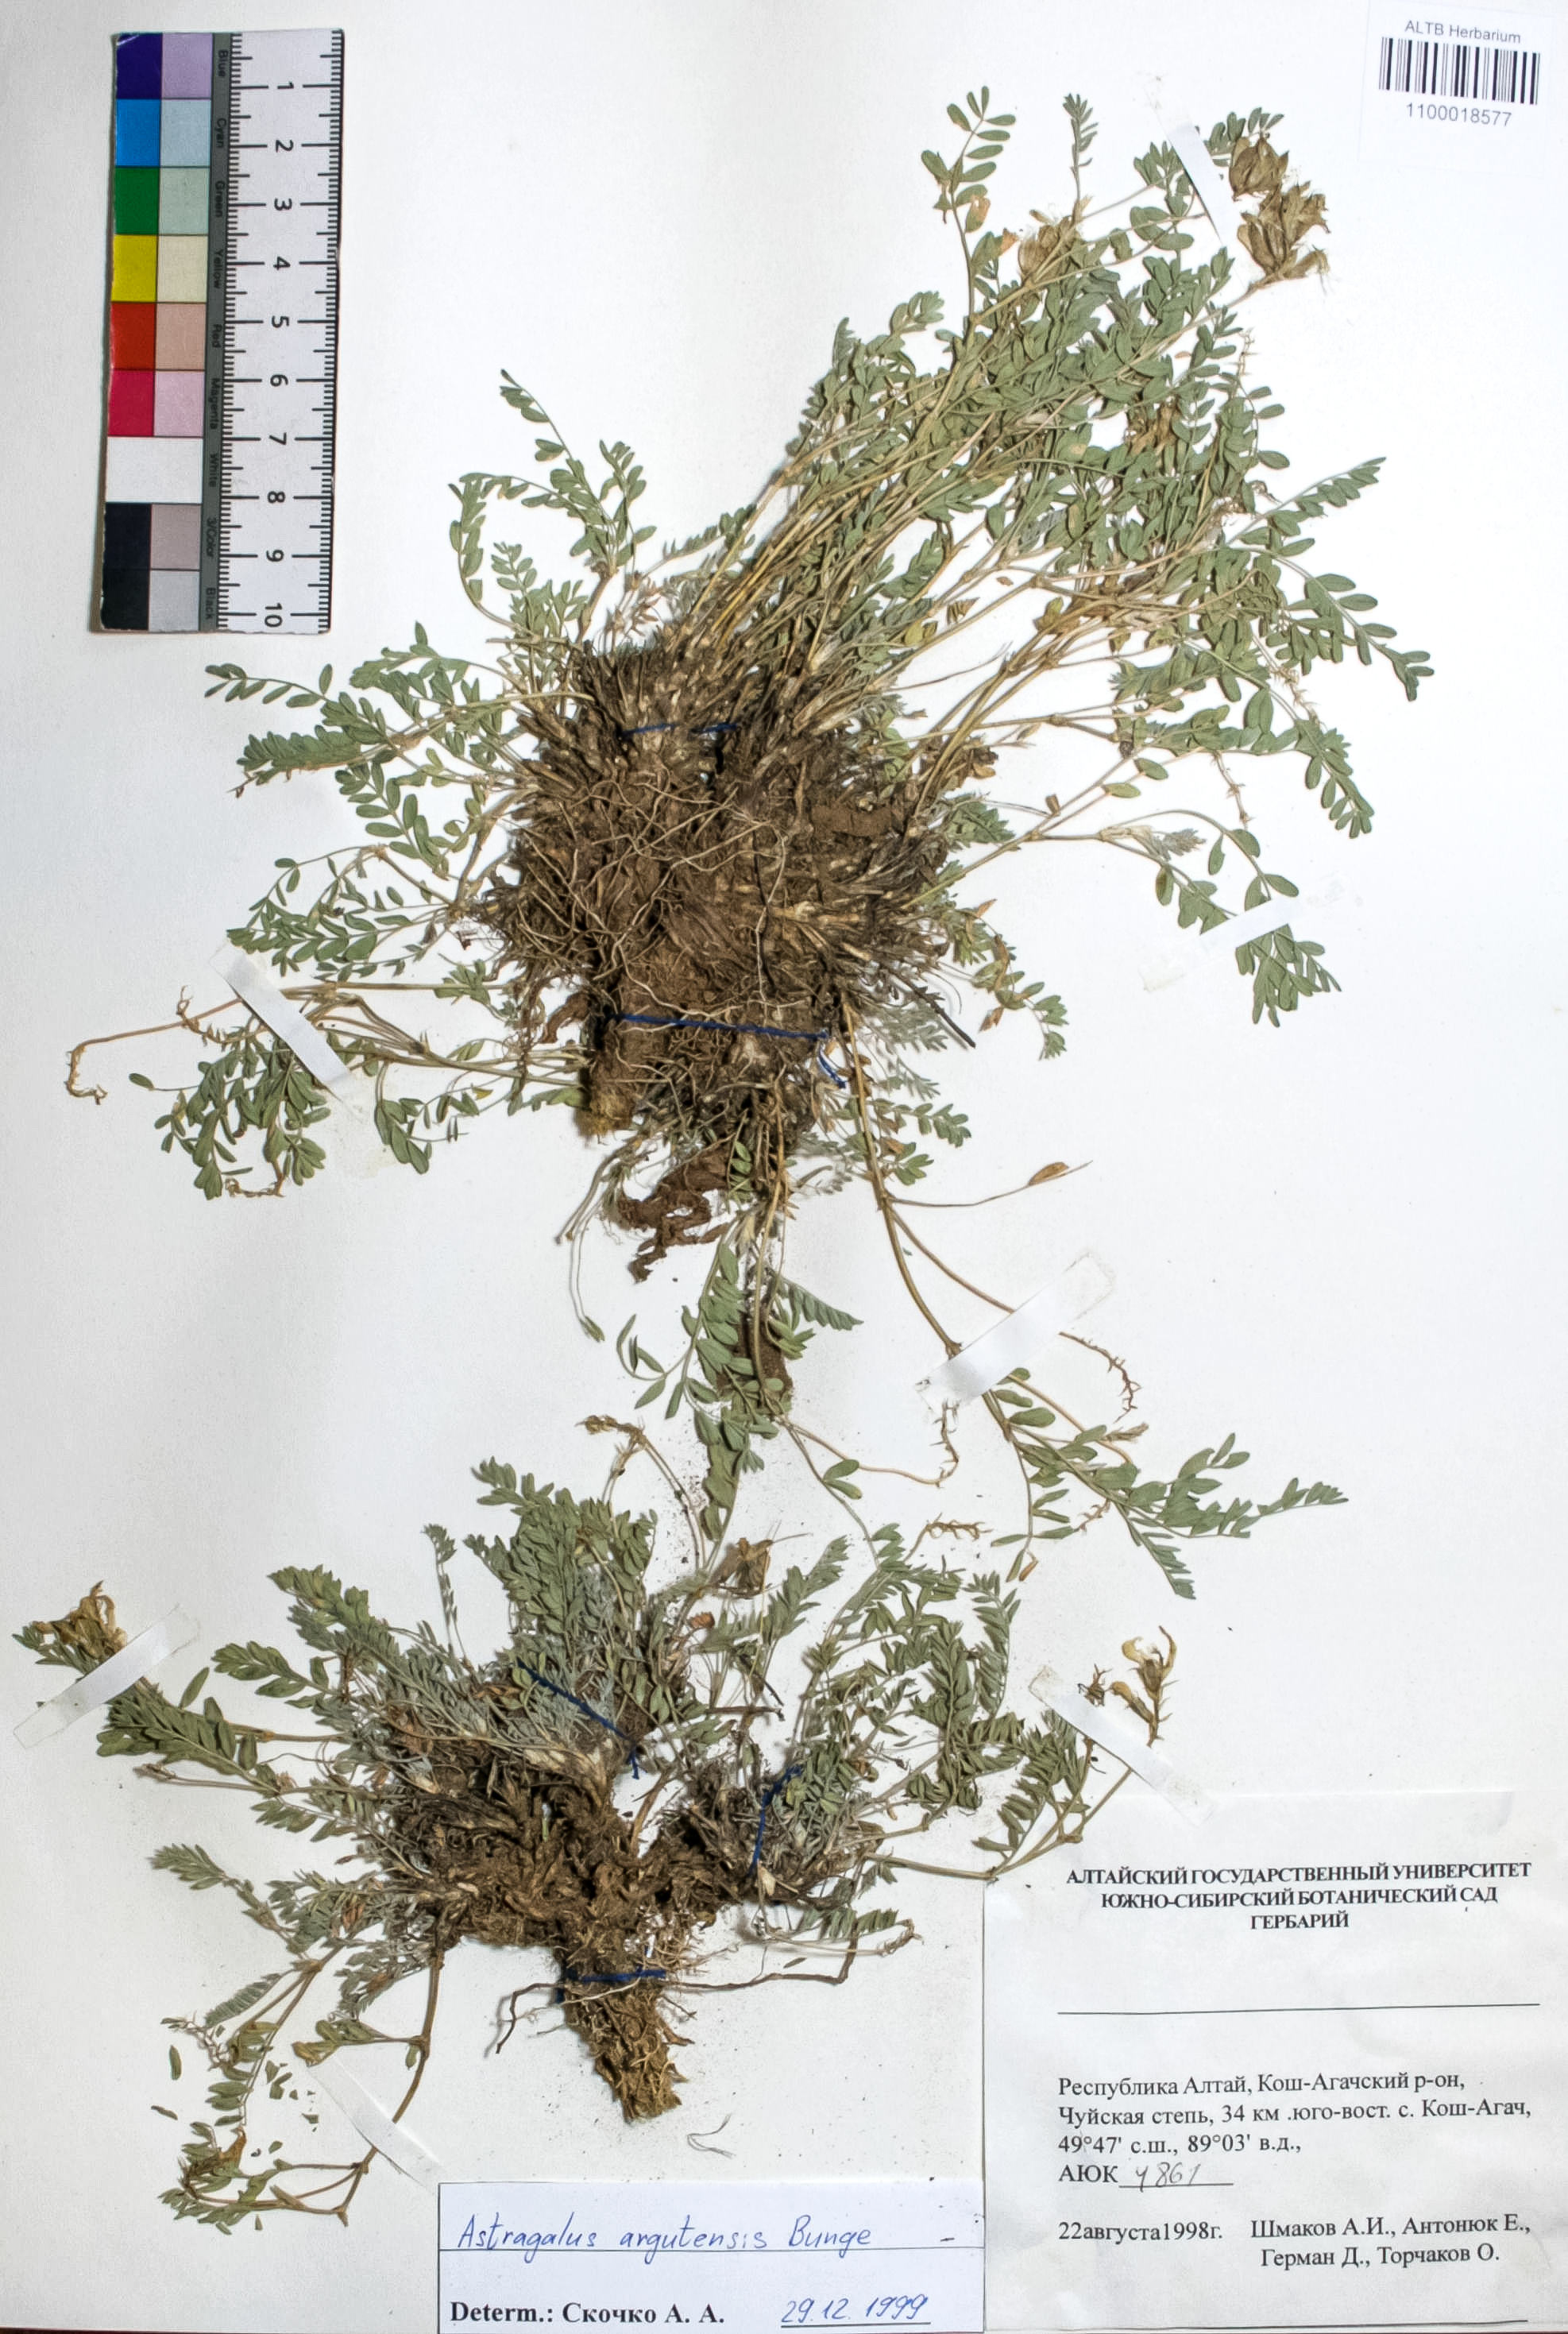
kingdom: Plantae
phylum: Tracheophyta
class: Magnoliopsida
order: Fabales
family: Fabaceae
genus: Astragalus
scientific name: Astragalus argutensis
